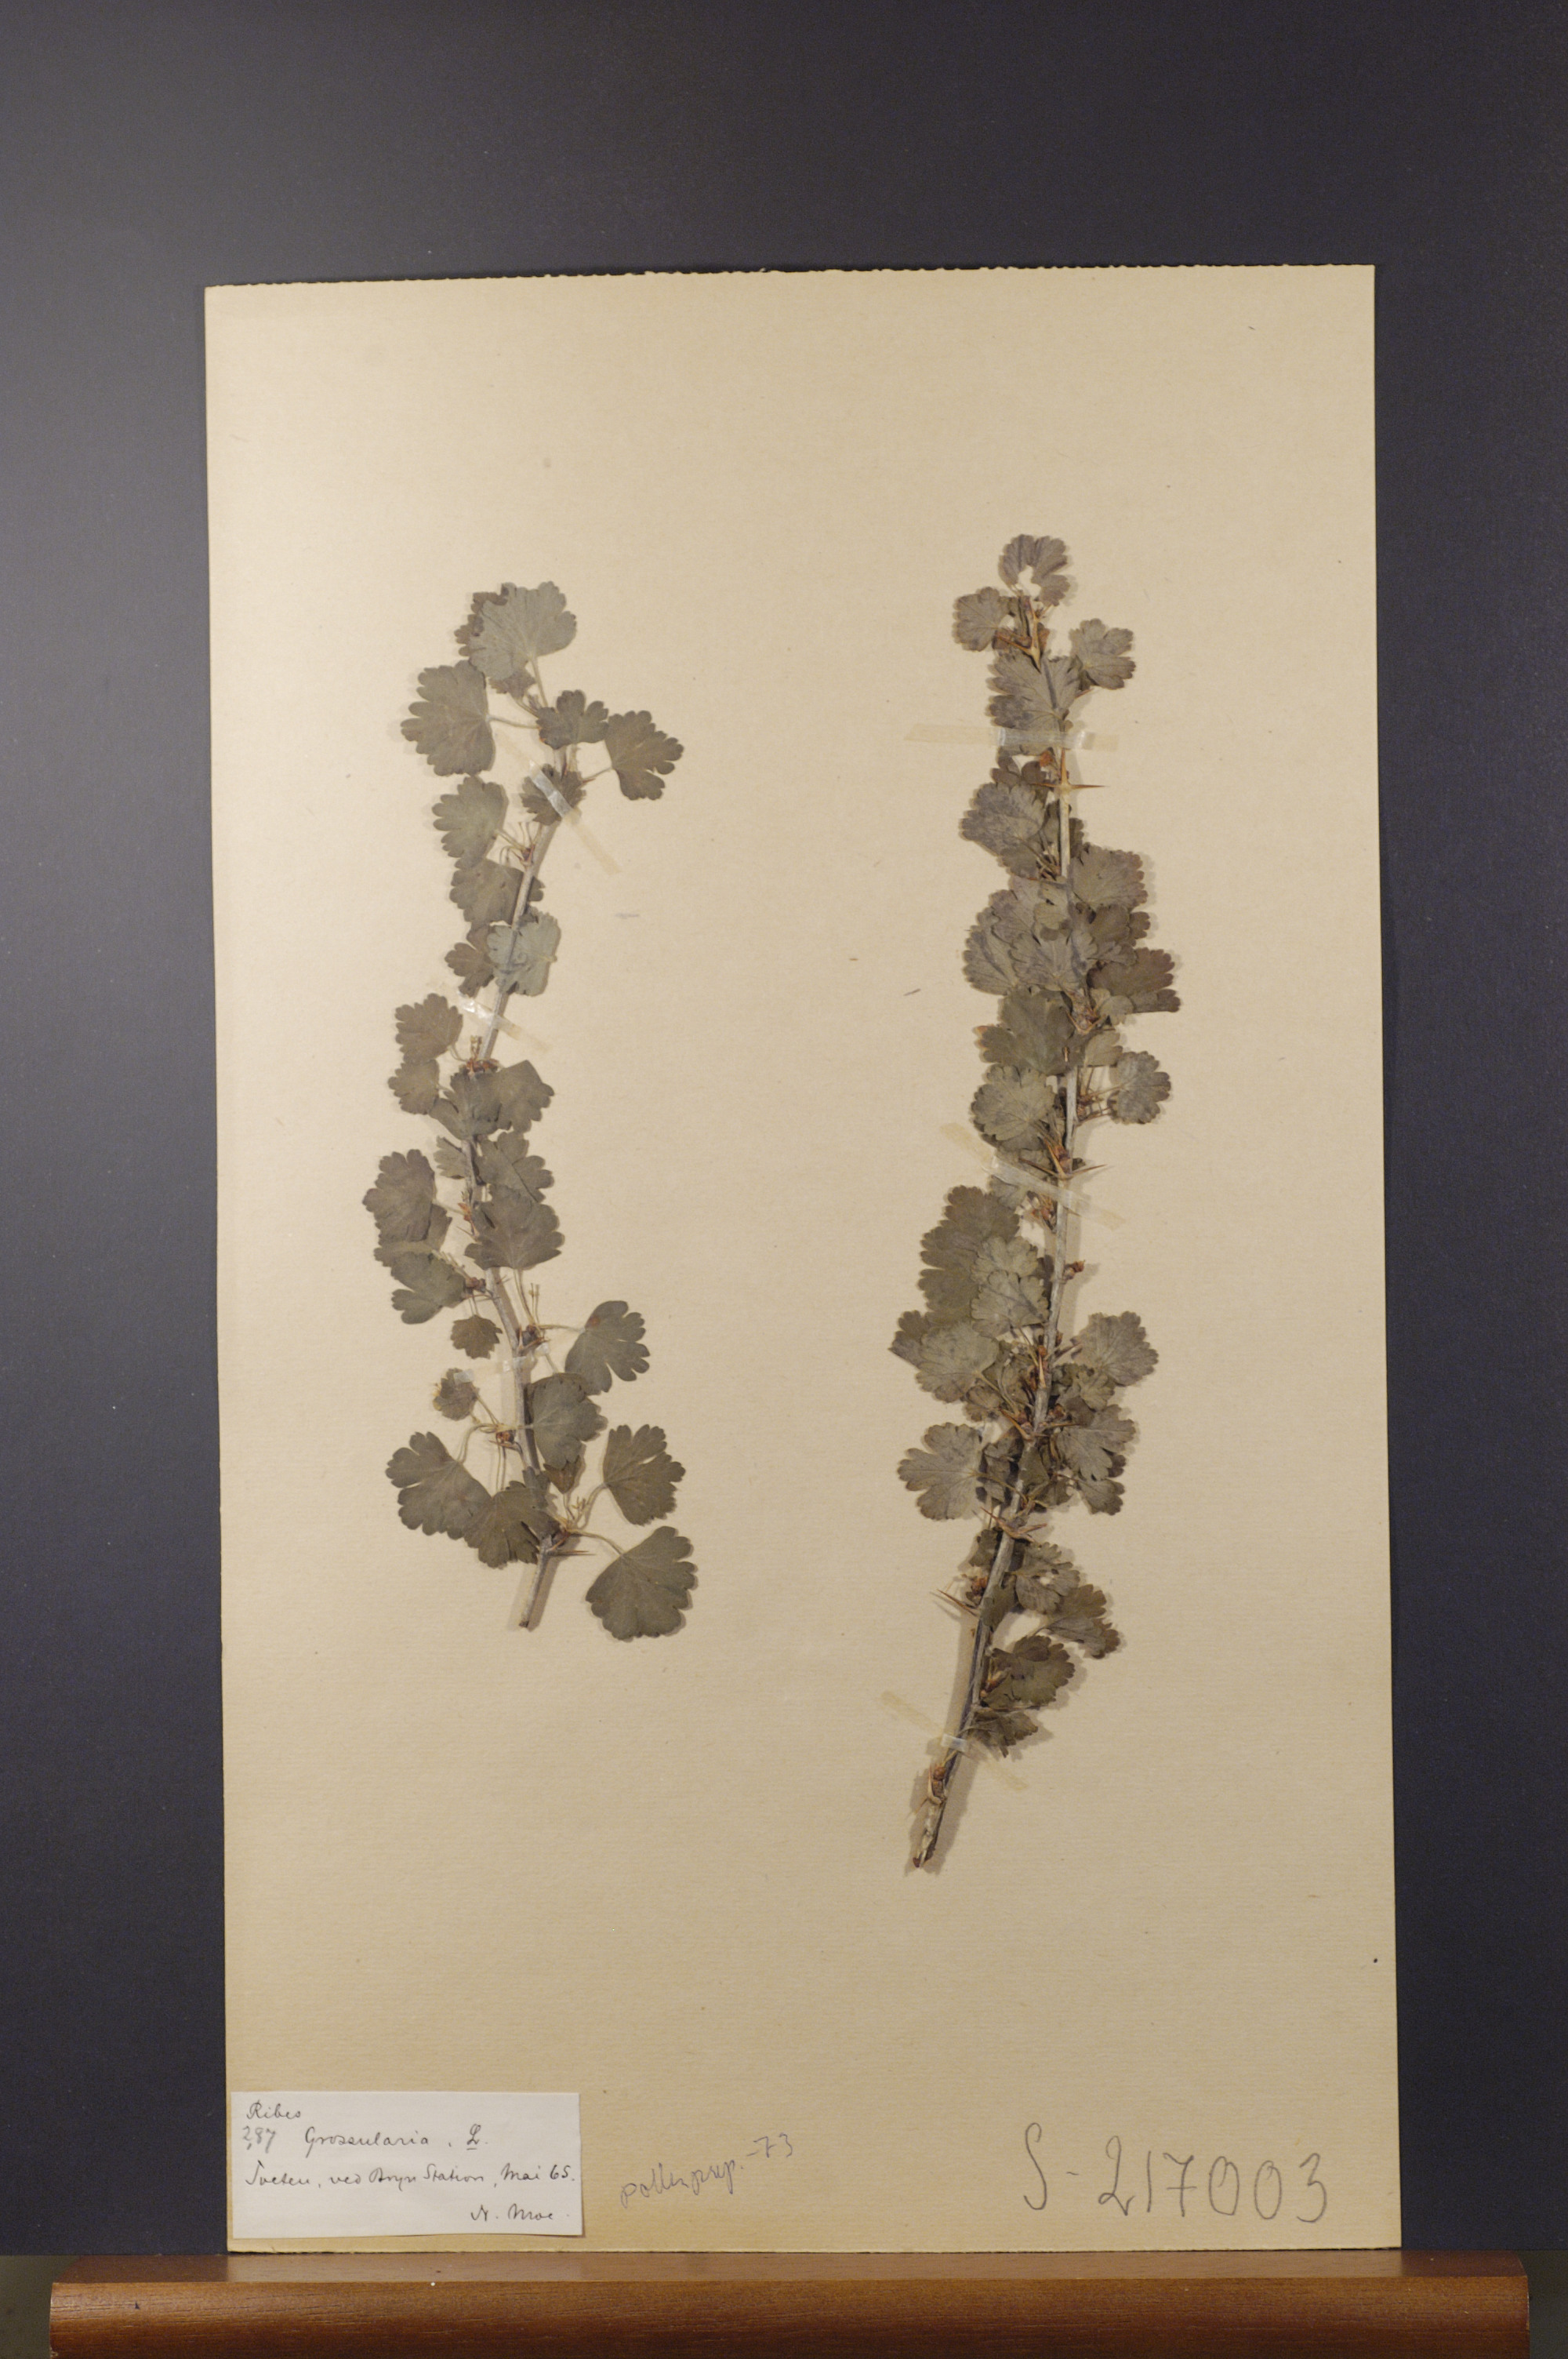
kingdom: Plantae
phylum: Tracheophyta
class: Magnoliopsida
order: Saxifragales
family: Grossulariaceae
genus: Ribes
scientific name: Ribes uva-crispa
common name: Gooseberry
